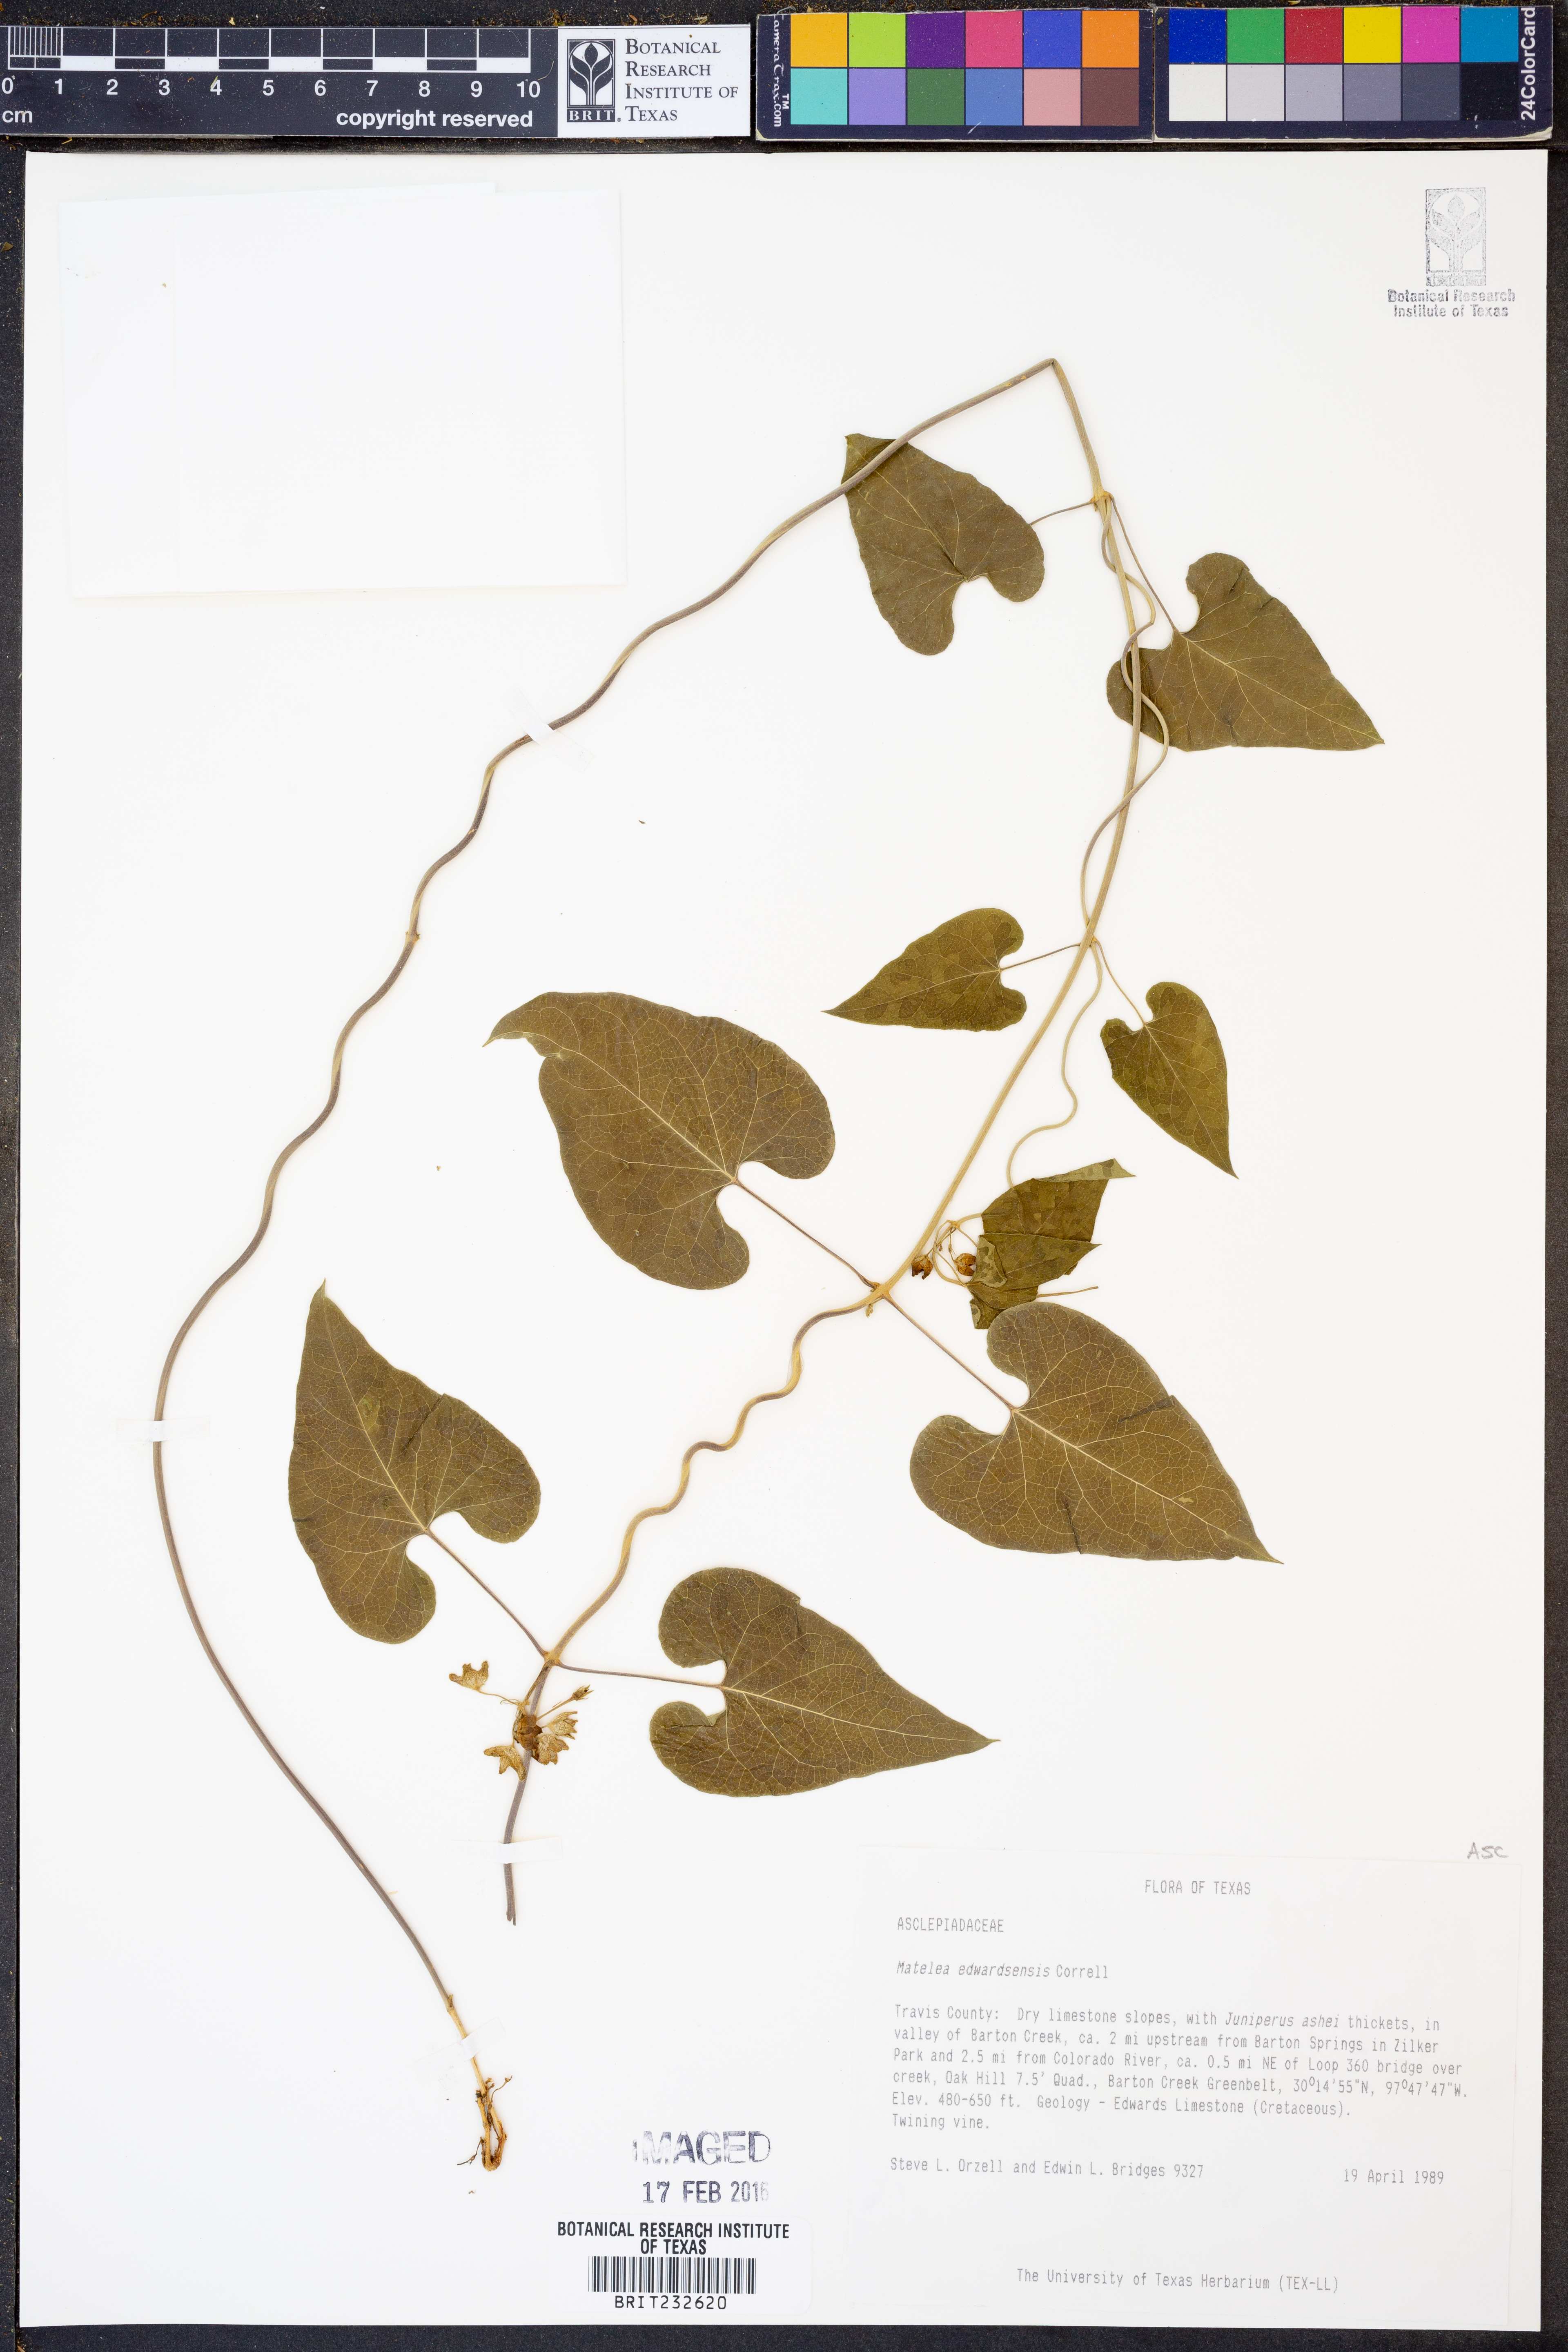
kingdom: Plantae
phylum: Tracheophyta
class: Magnoliopsida
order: Gentianales
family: Apocynaceae
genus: Matelea
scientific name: Matelea edwardsensis
